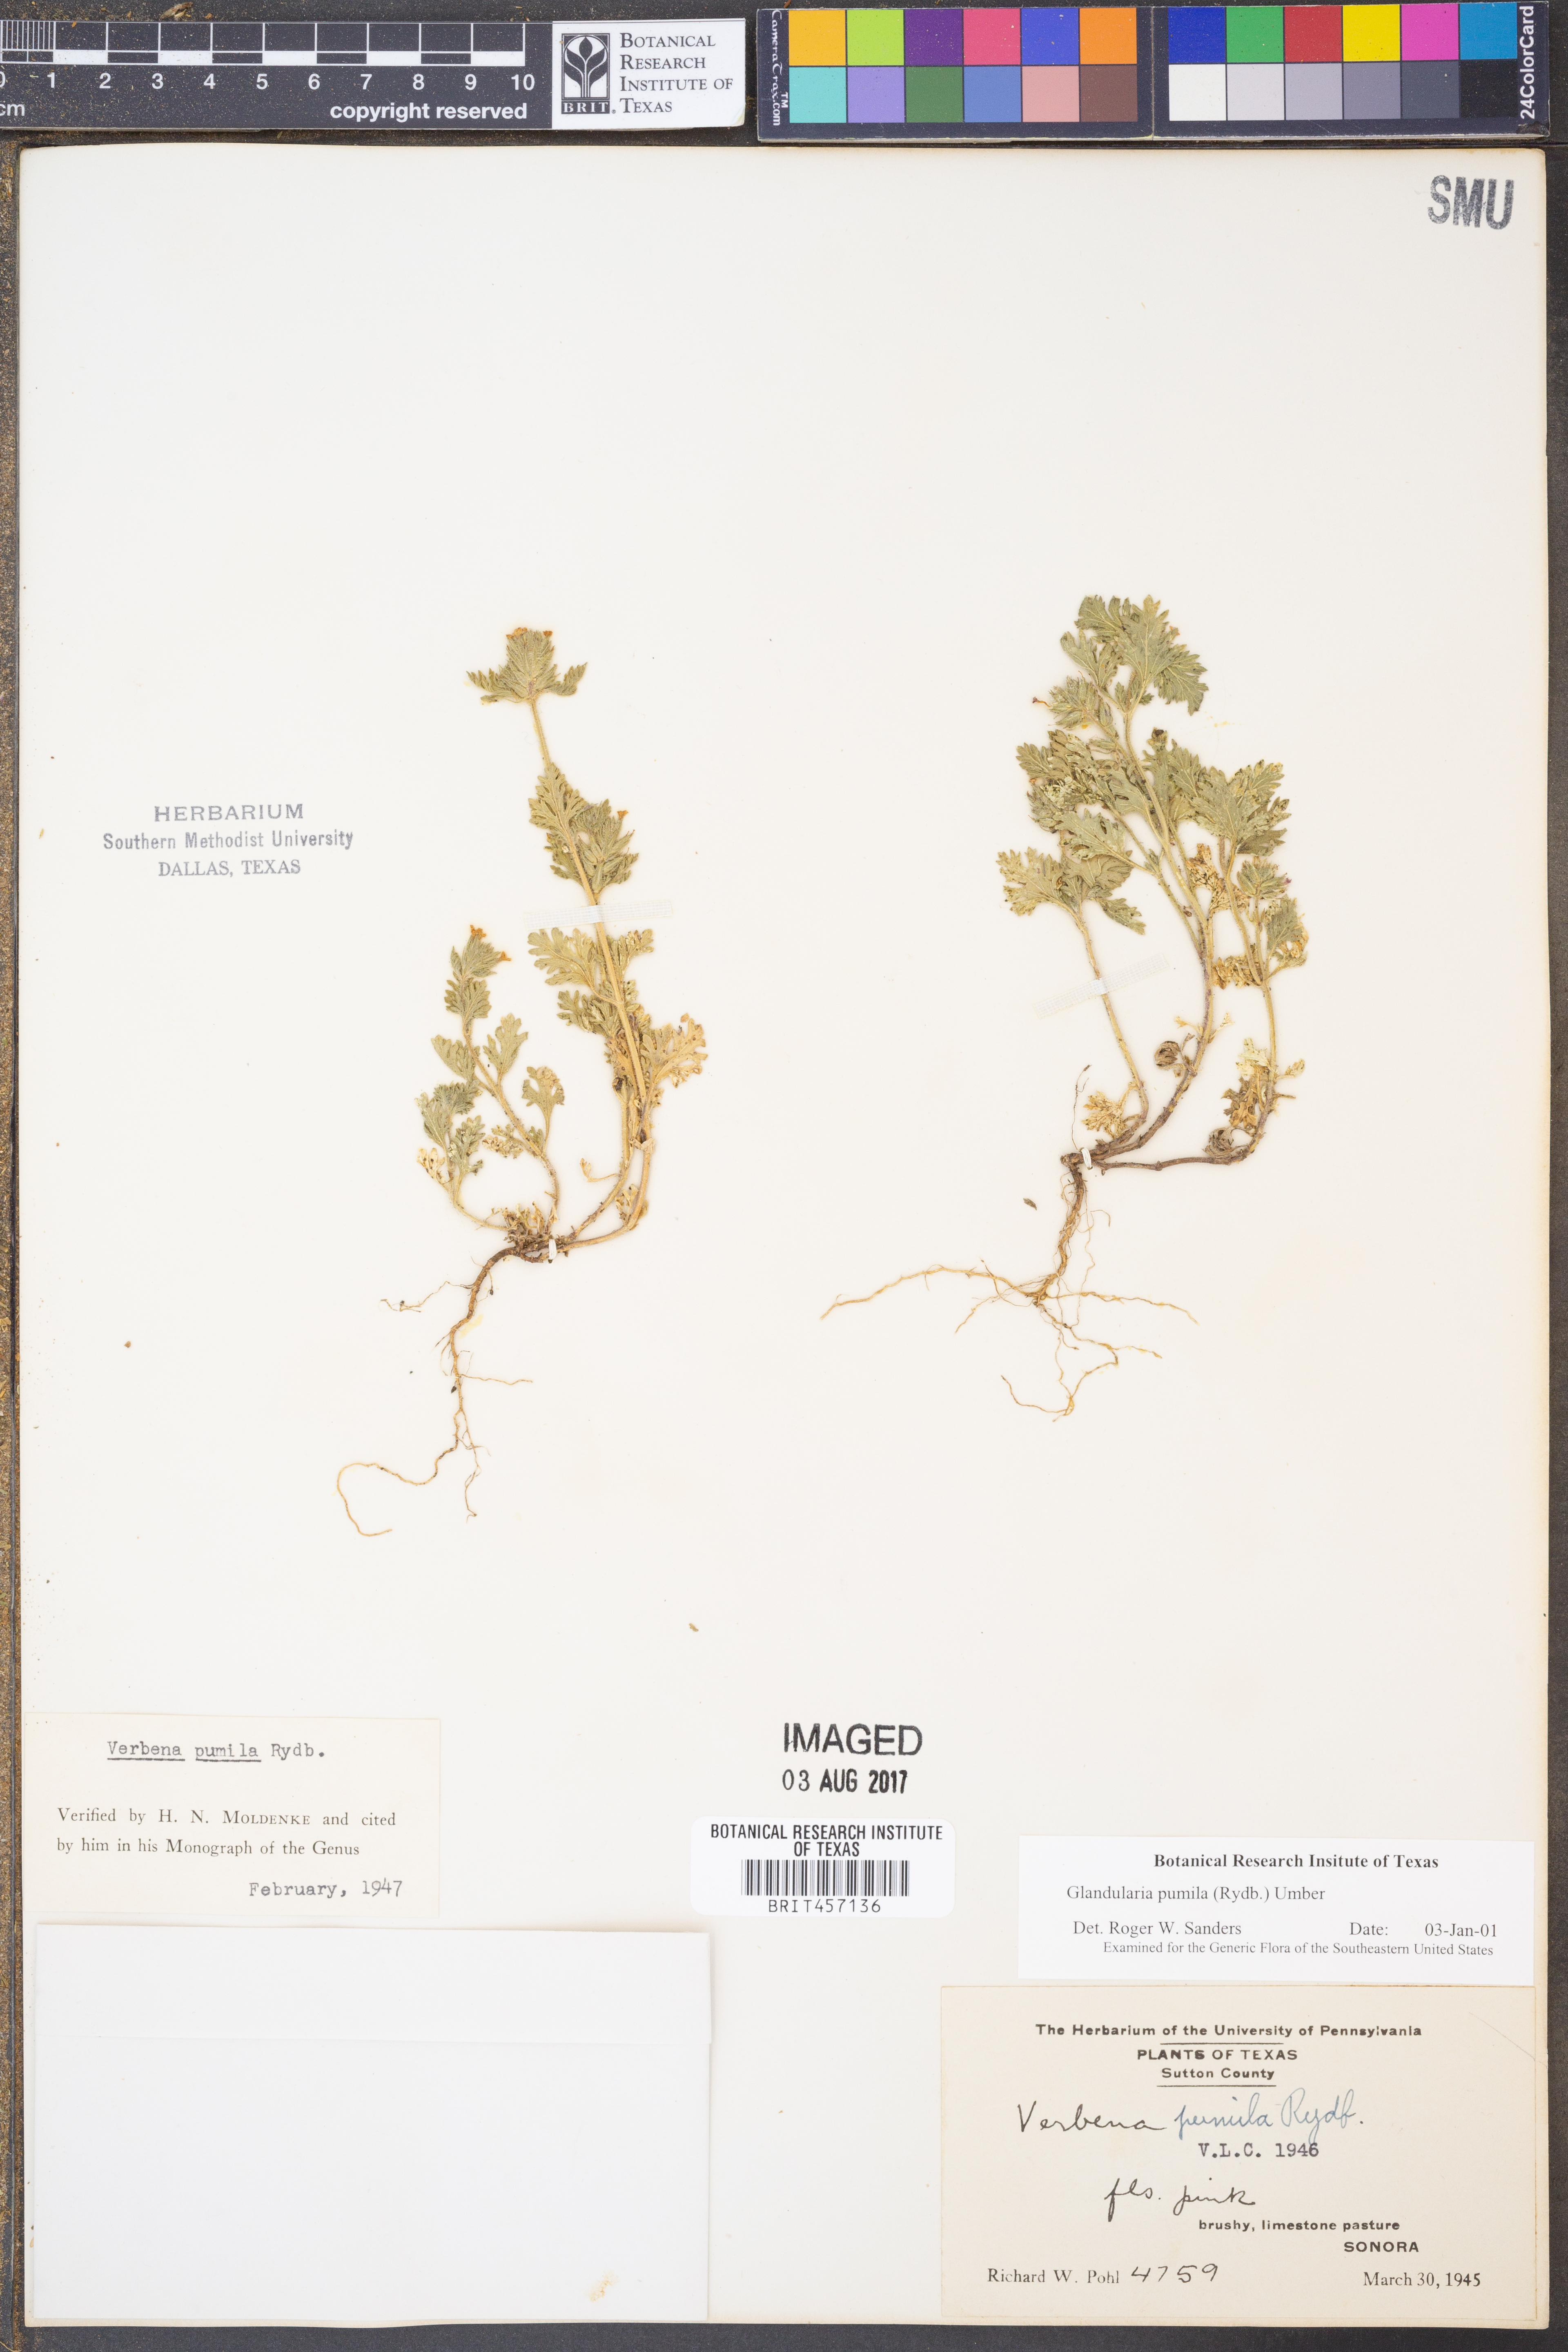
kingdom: Plantae
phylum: Tracheophyta
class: Magnoliopsida
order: Lamiales
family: Verbenaceae
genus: Verbena
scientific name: Verbena pumila
